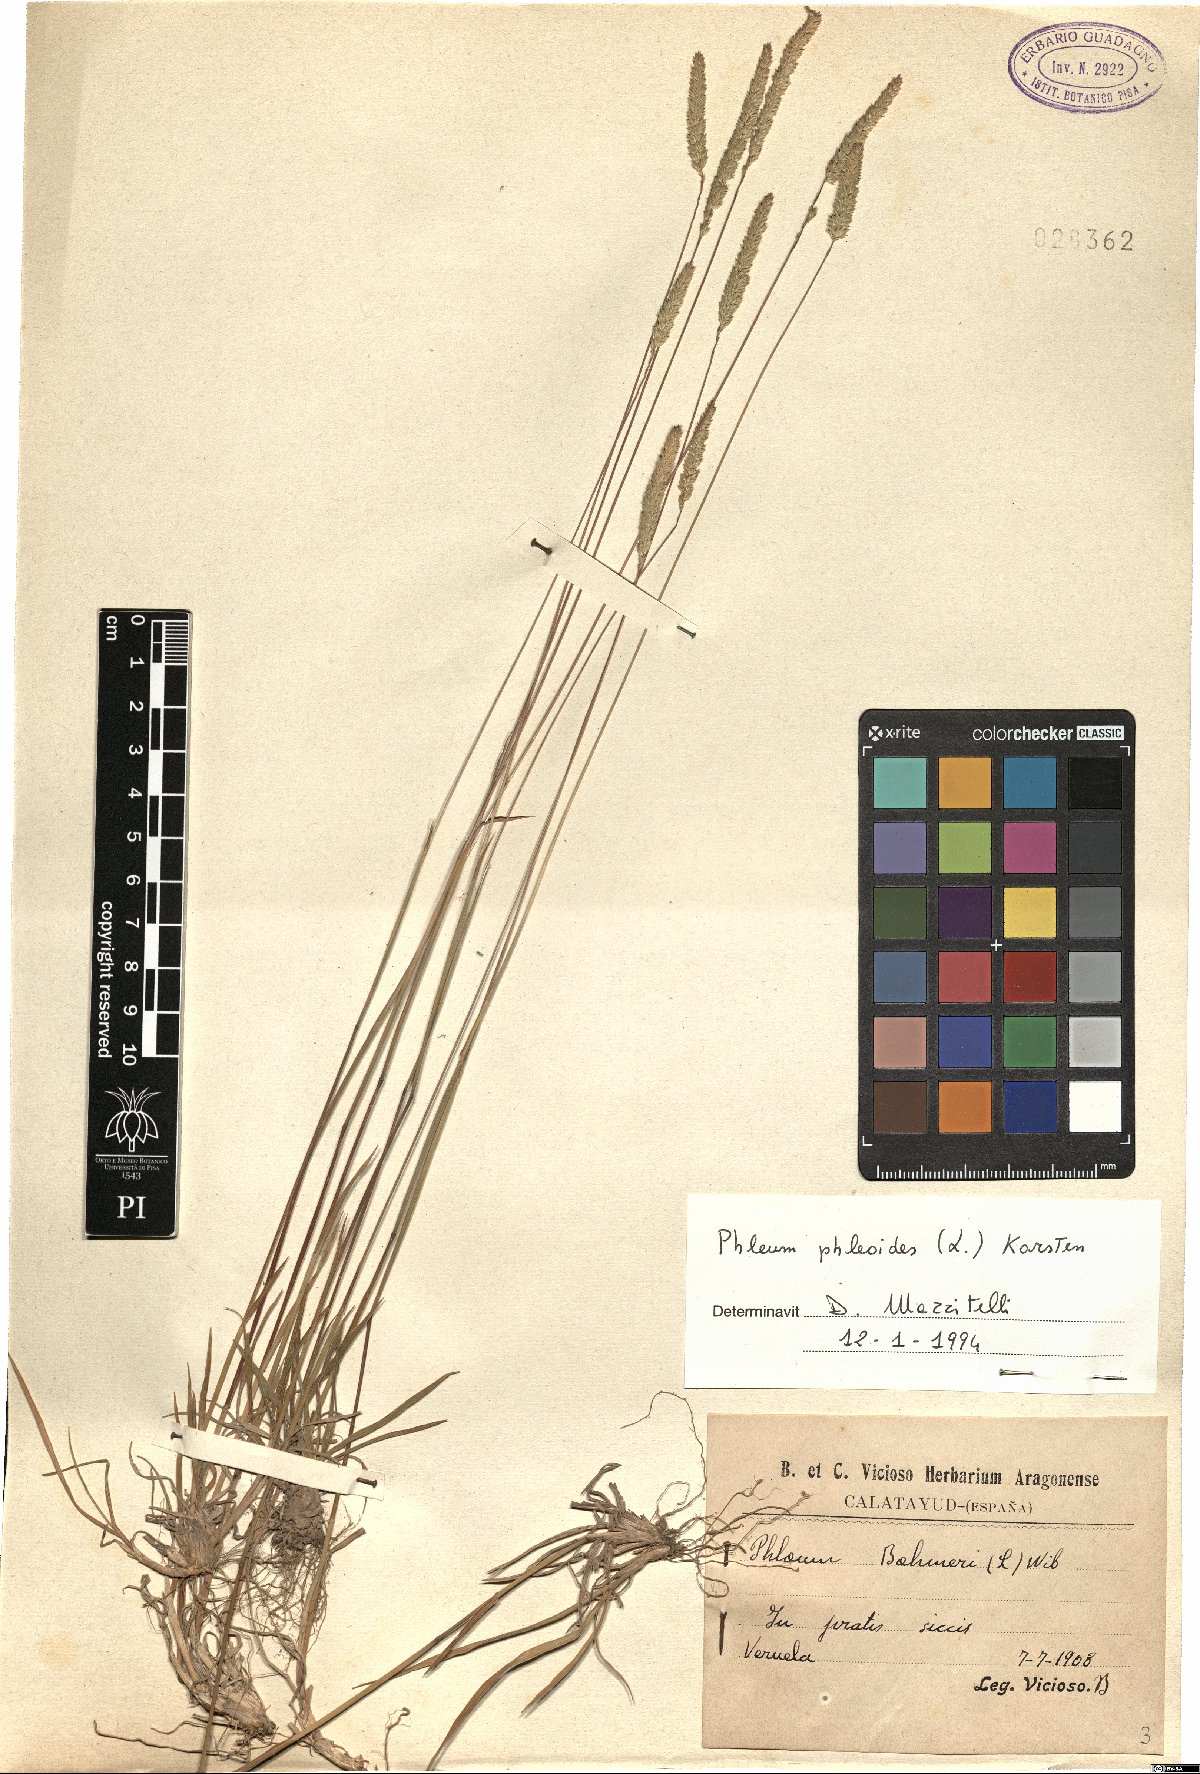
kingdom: Plantae
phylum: Tracheophyta
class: Liliopsida
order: Poales
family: Poaceae
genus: Phleum
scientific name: Phleum phleoides
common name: Purple-stem cat's-tail
